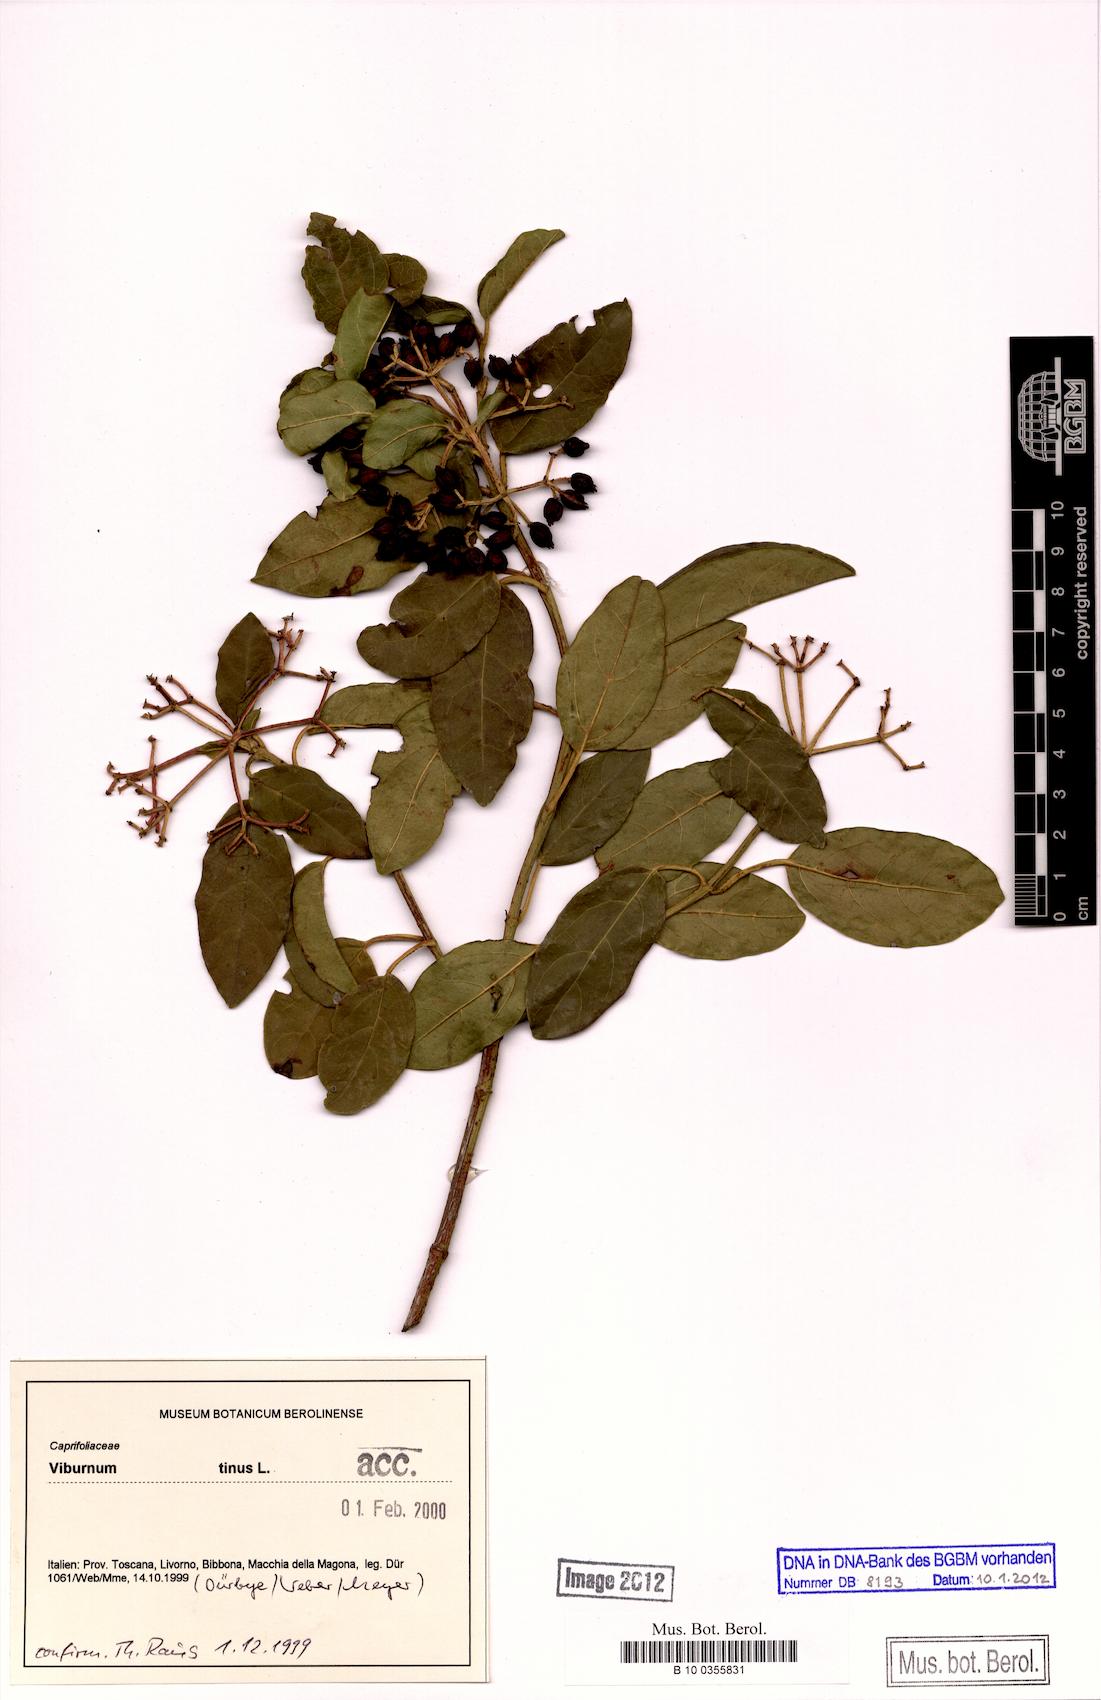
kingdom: Plantae
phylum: Tracheophyta
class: Magnoliopsida
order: Dipsacales
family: Viburnaceae
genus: Viburnum
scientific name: Viburnum tinus
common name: Laurustinus
